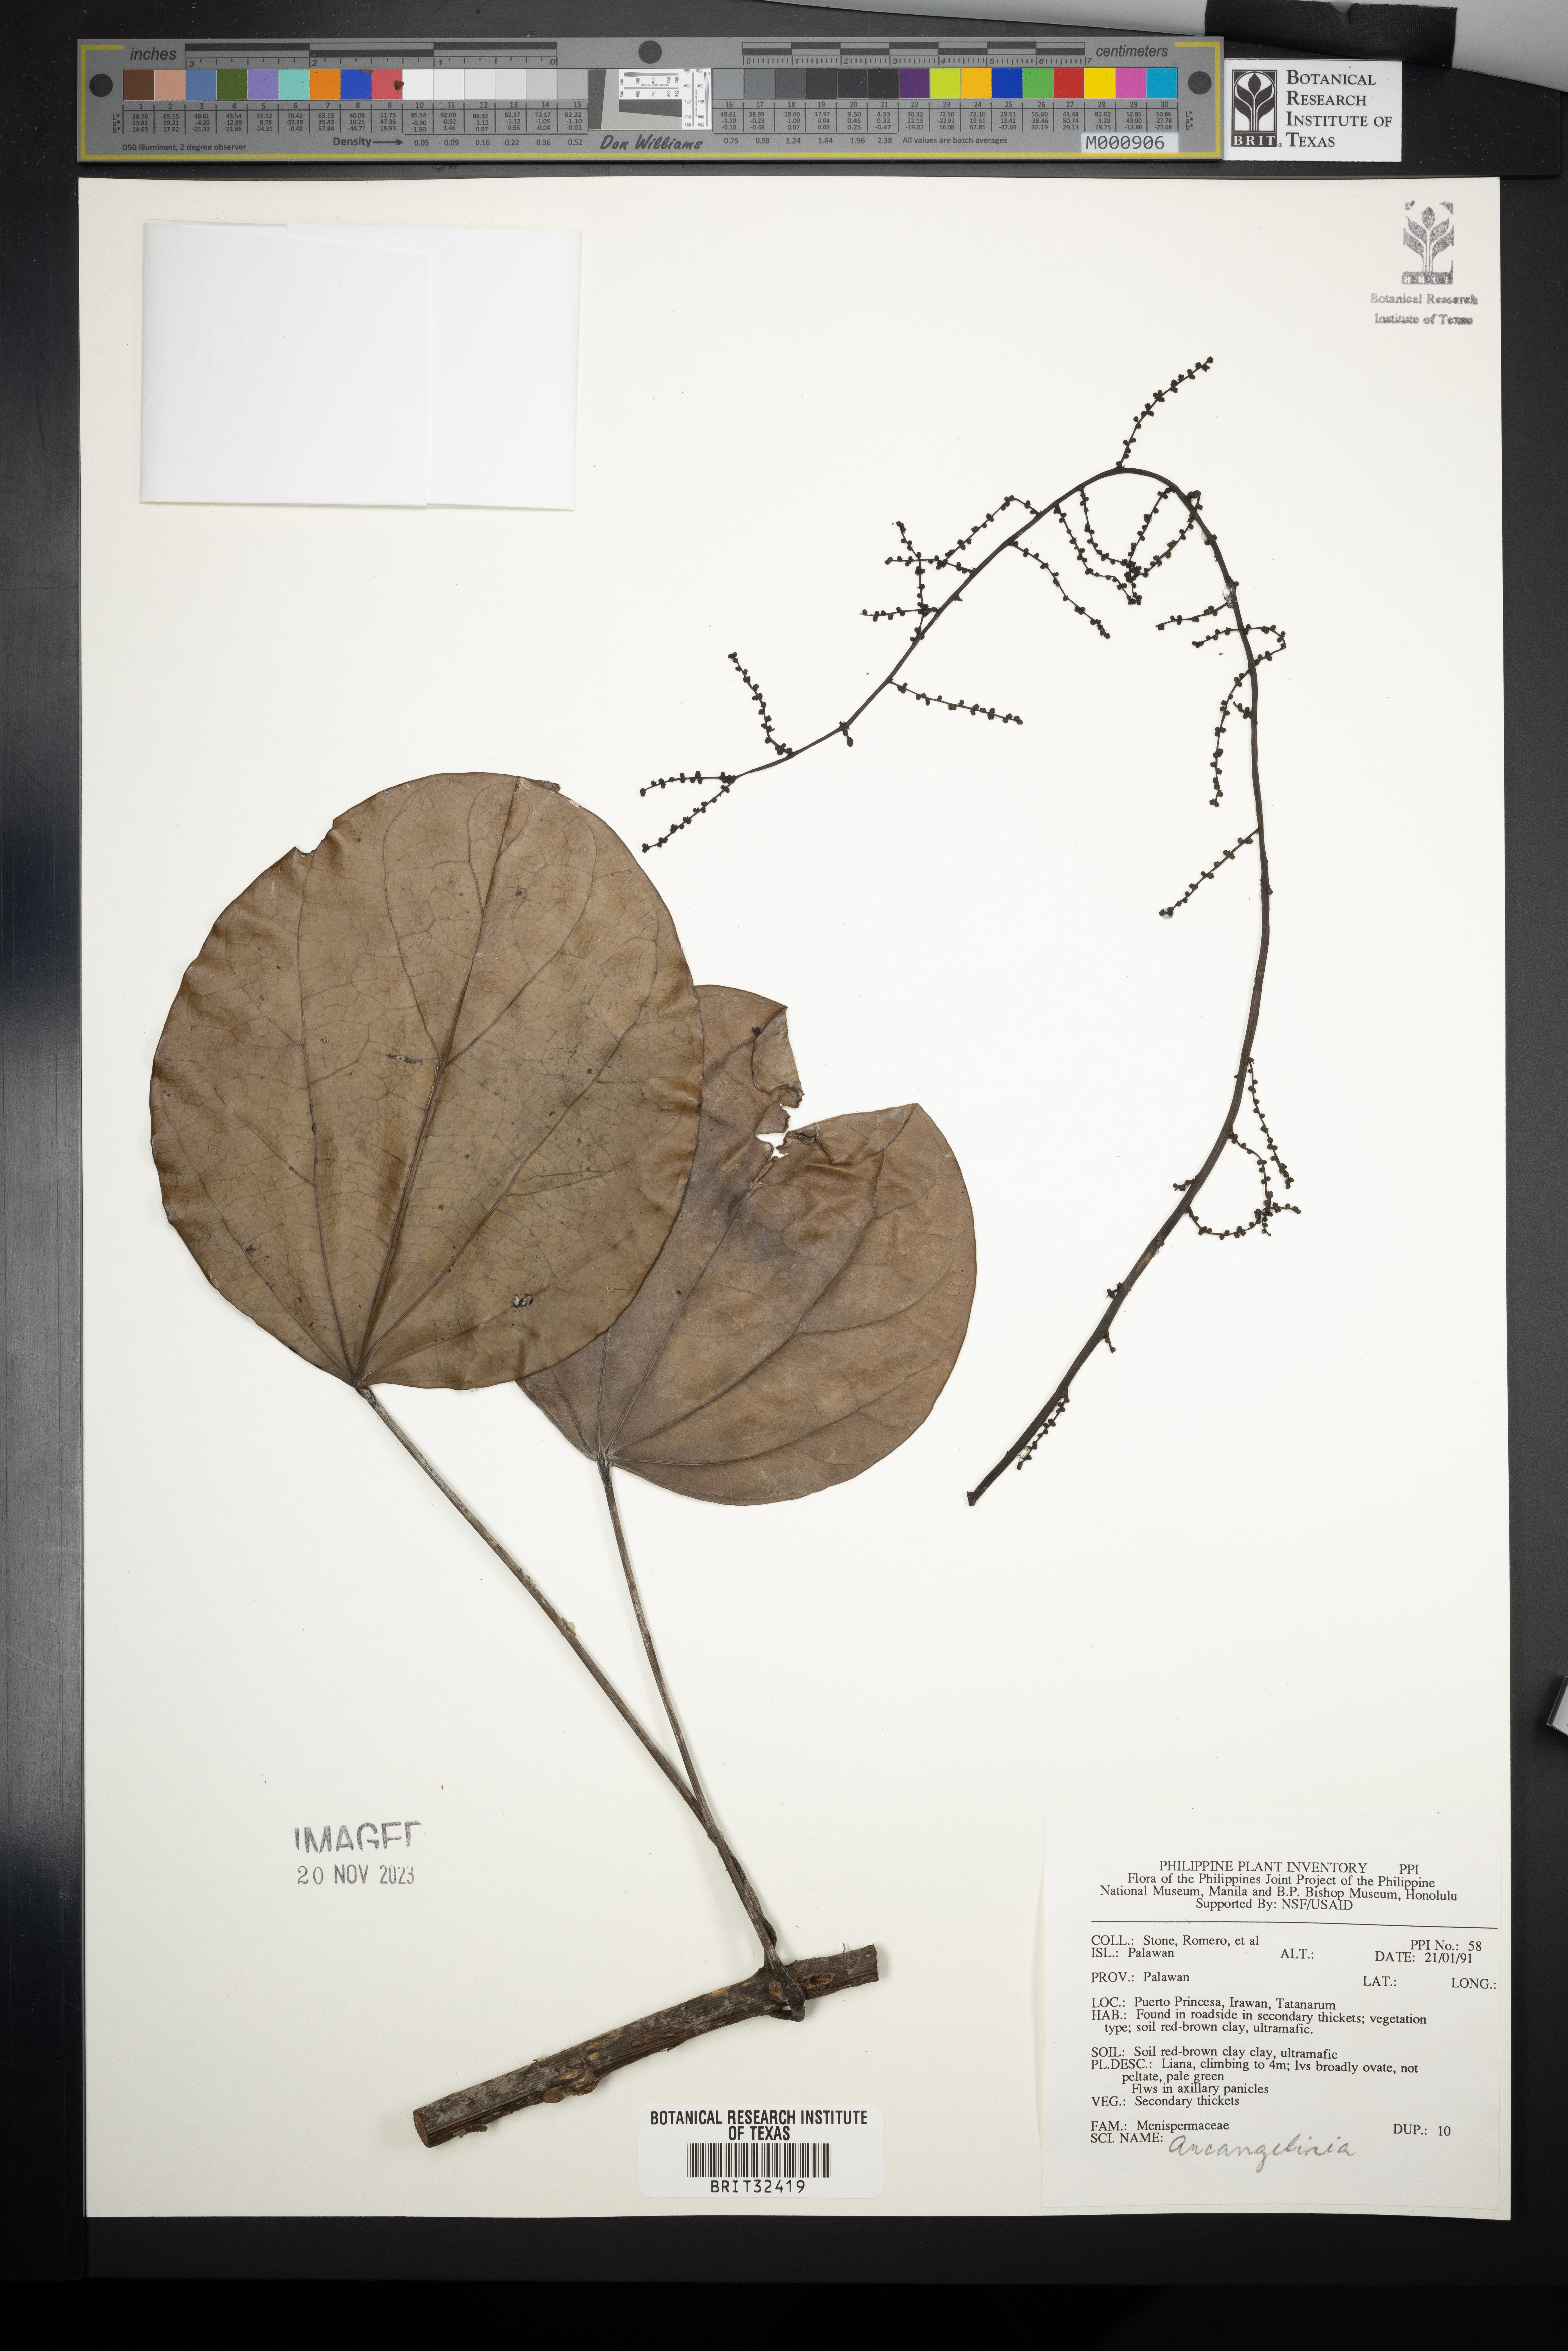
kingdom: Plantae
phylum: Tracheophyta
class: Magnoliopsida
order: Ranunculales
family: Menispermaceae
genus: Arcangelisia
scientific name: Arcangelisia
